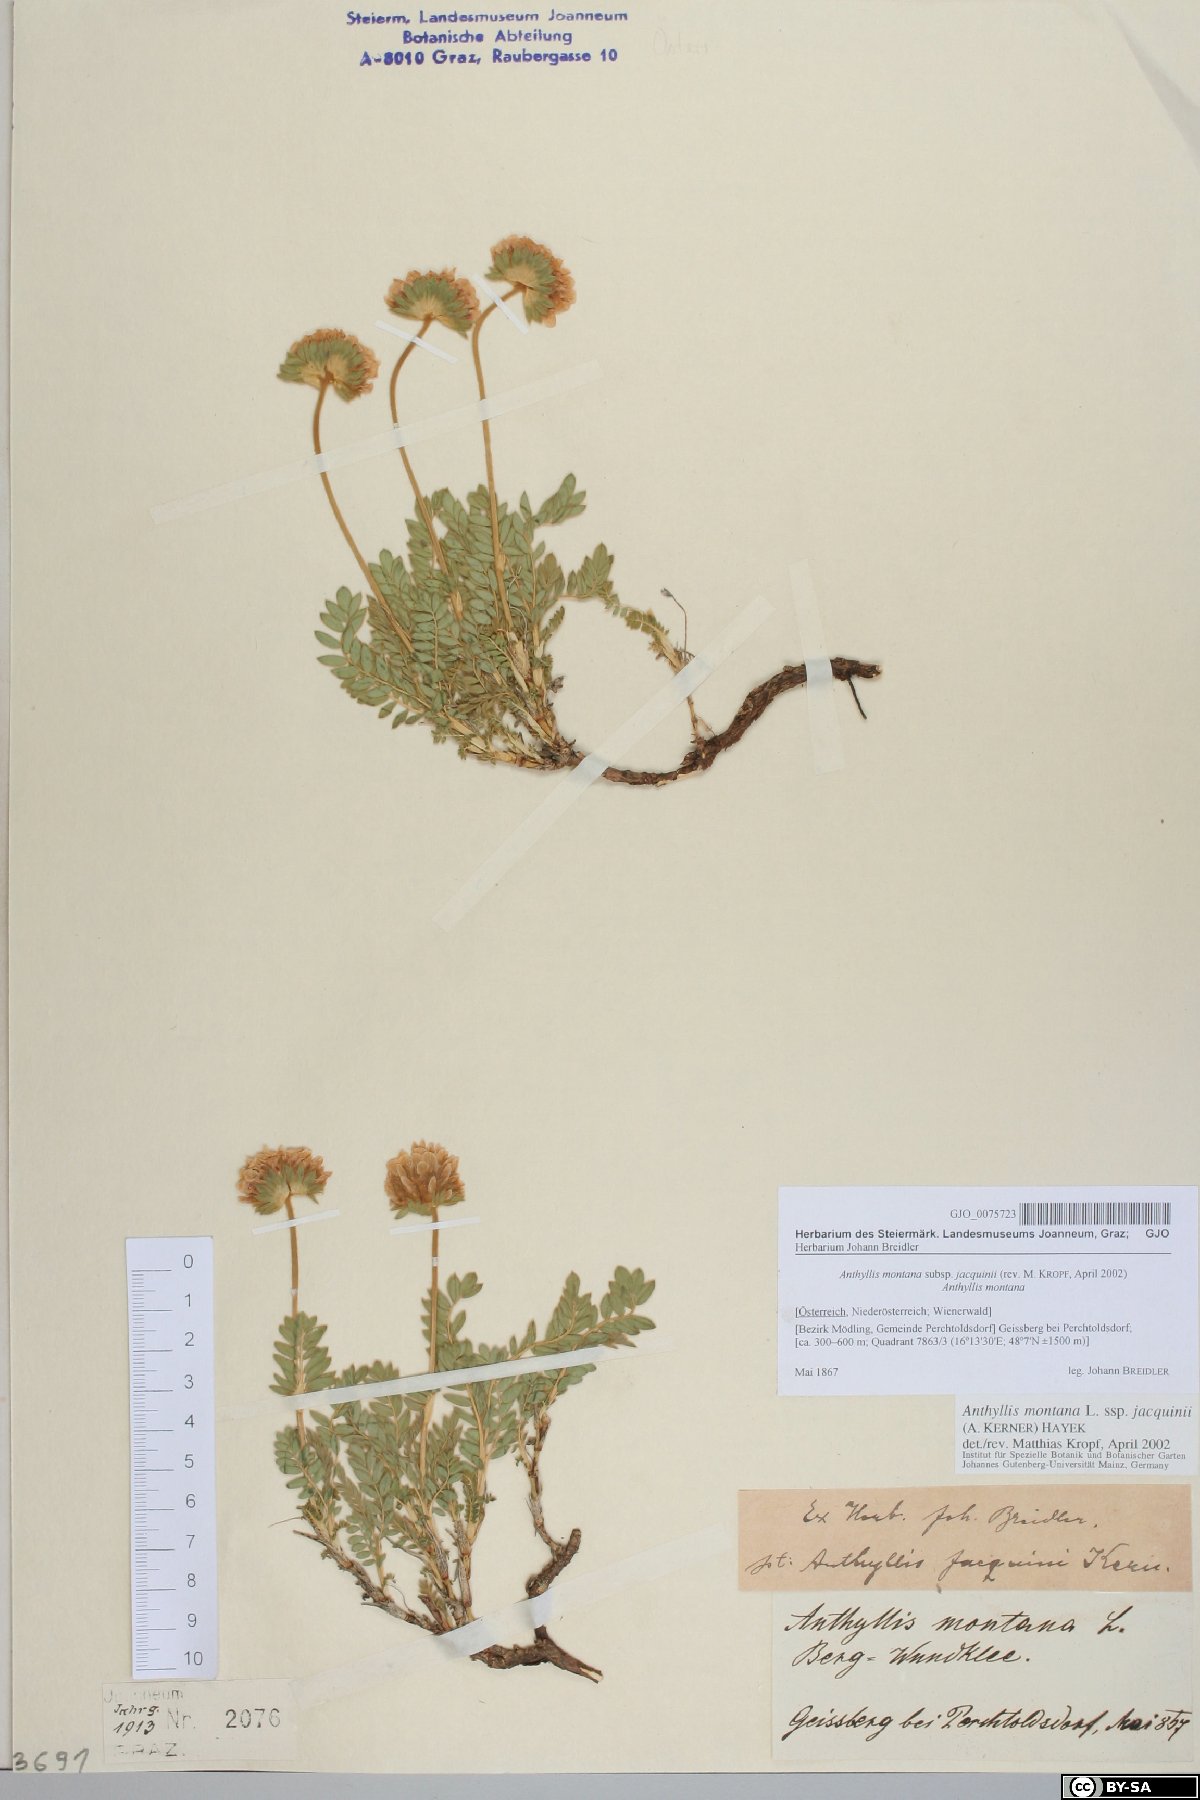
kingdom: Plantae
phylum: Tracheophyta
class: Magnoliopsida
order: Fabales
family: Fabaceae
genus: Anthyllis
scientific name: Anthyllis montana
